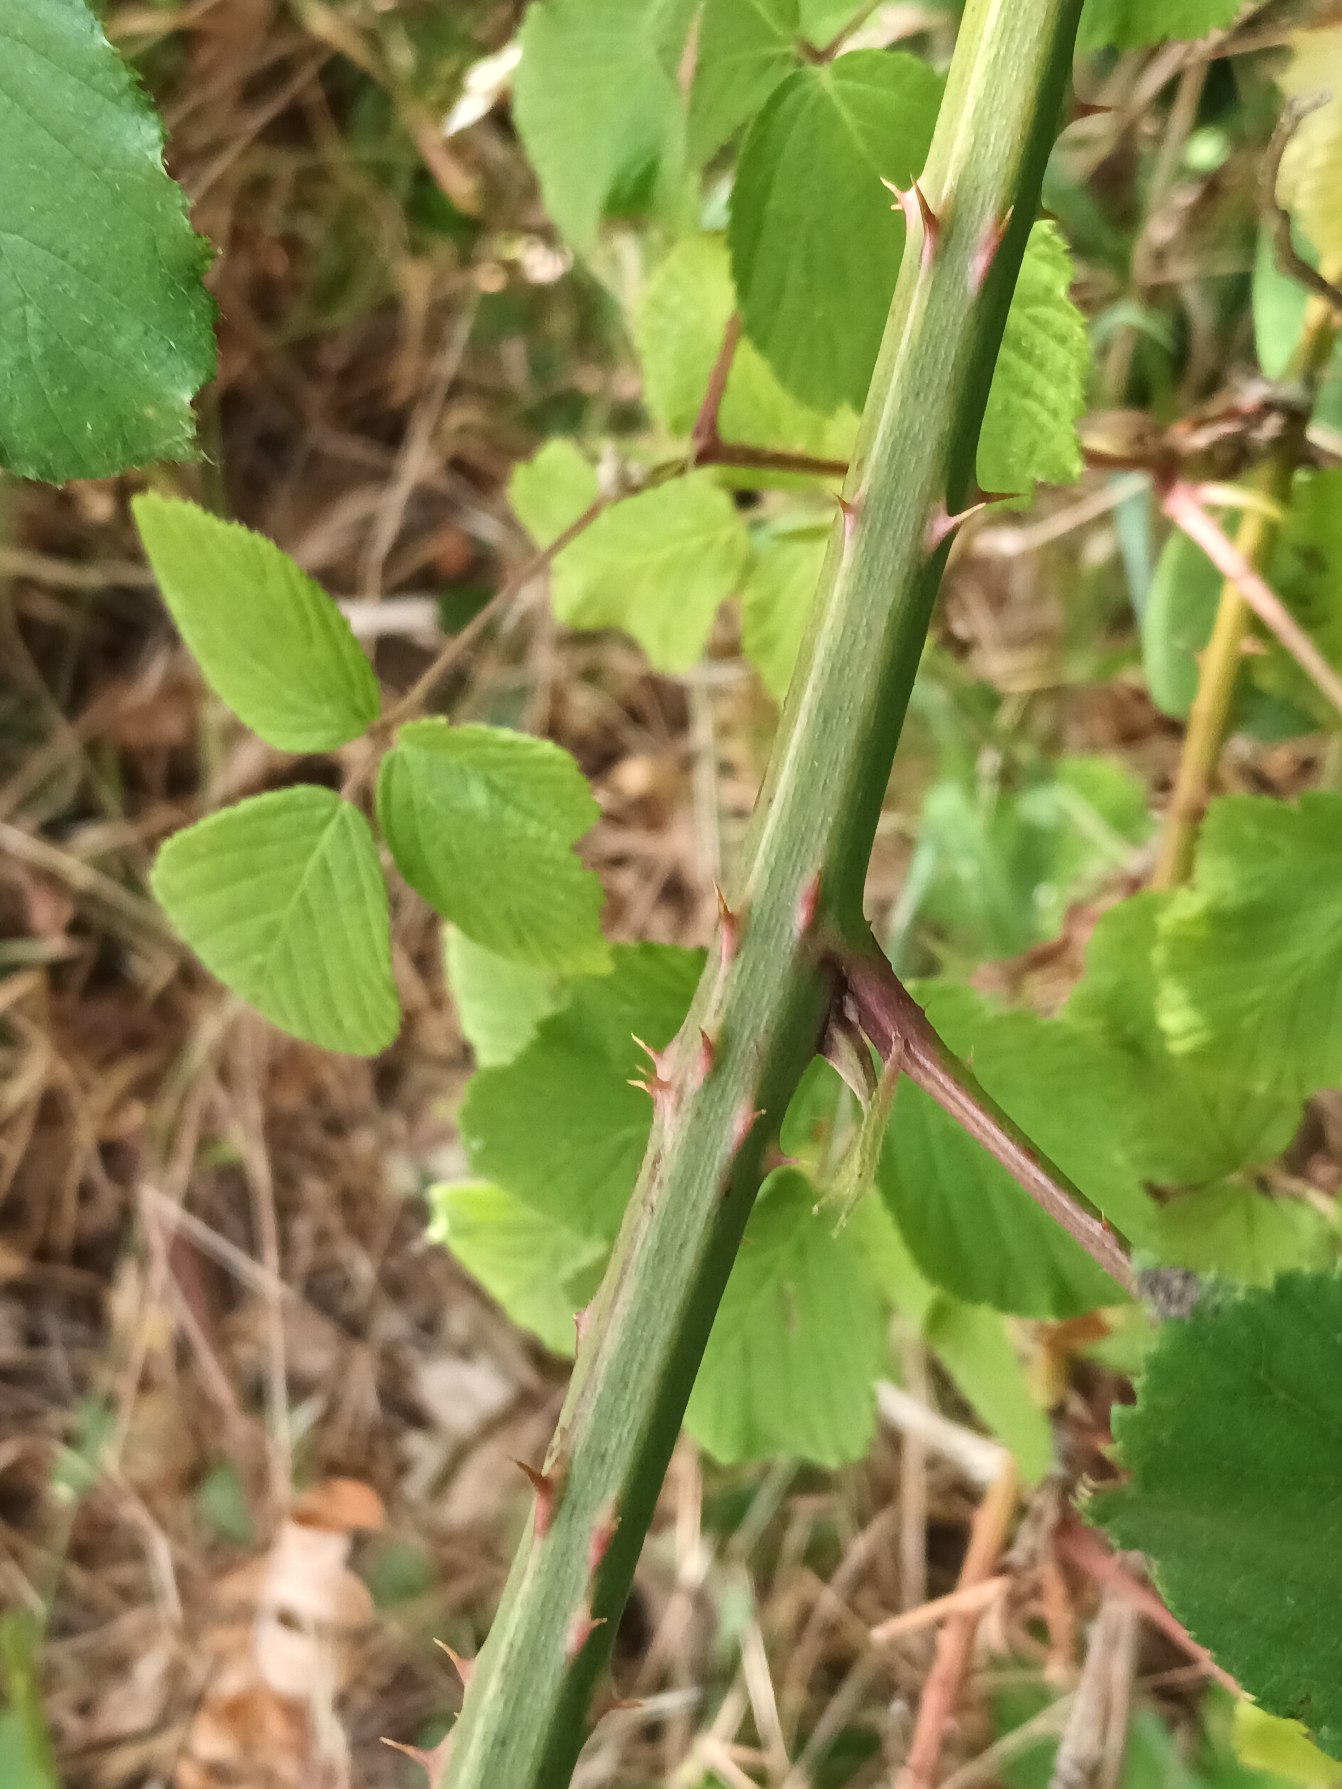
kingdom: Plantae
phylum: Tracheophyta
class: Magnoliopsida
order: Rosales
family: Rosaceae
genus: Rubus
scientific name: Rubus egregius
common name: Pragt-brombær
